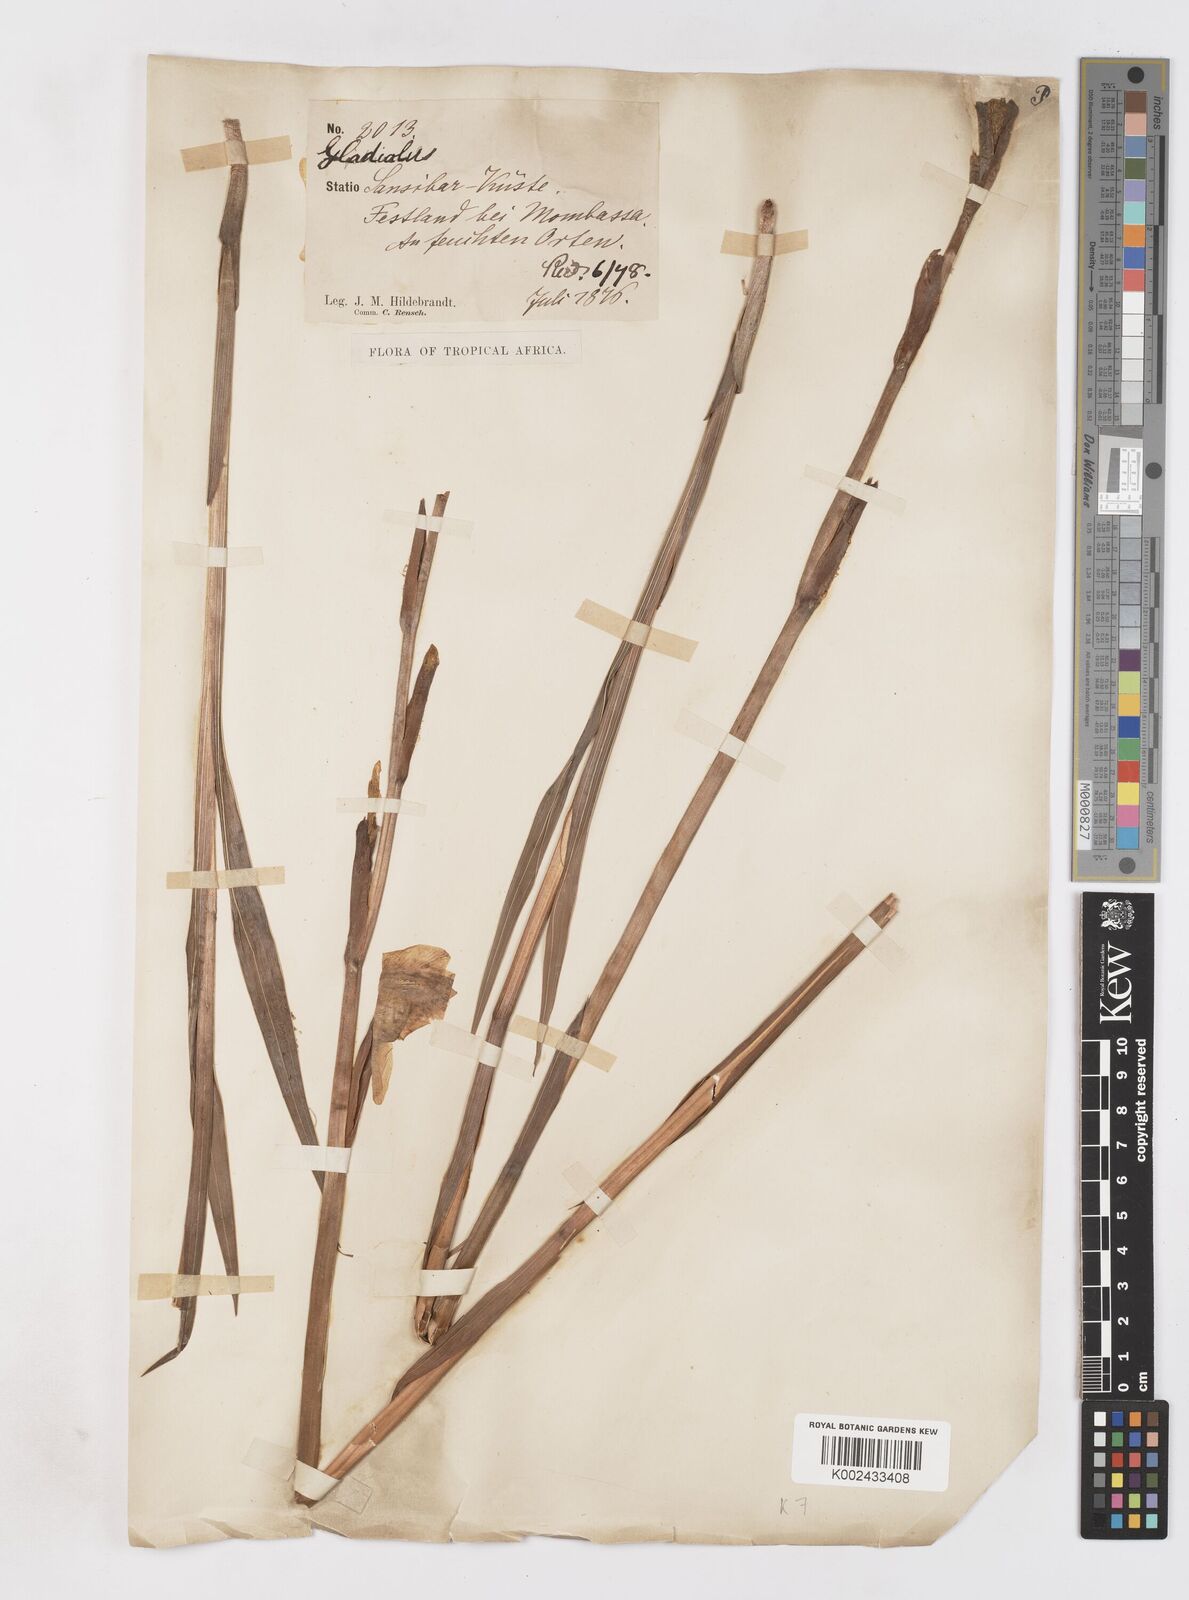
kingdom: Plantae
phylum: Tracheophyta
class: Liliopsida
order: Asparagales
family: Iridaceae
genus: Gladiolus
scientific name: Gladiolus dalenii
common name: Cornflag
